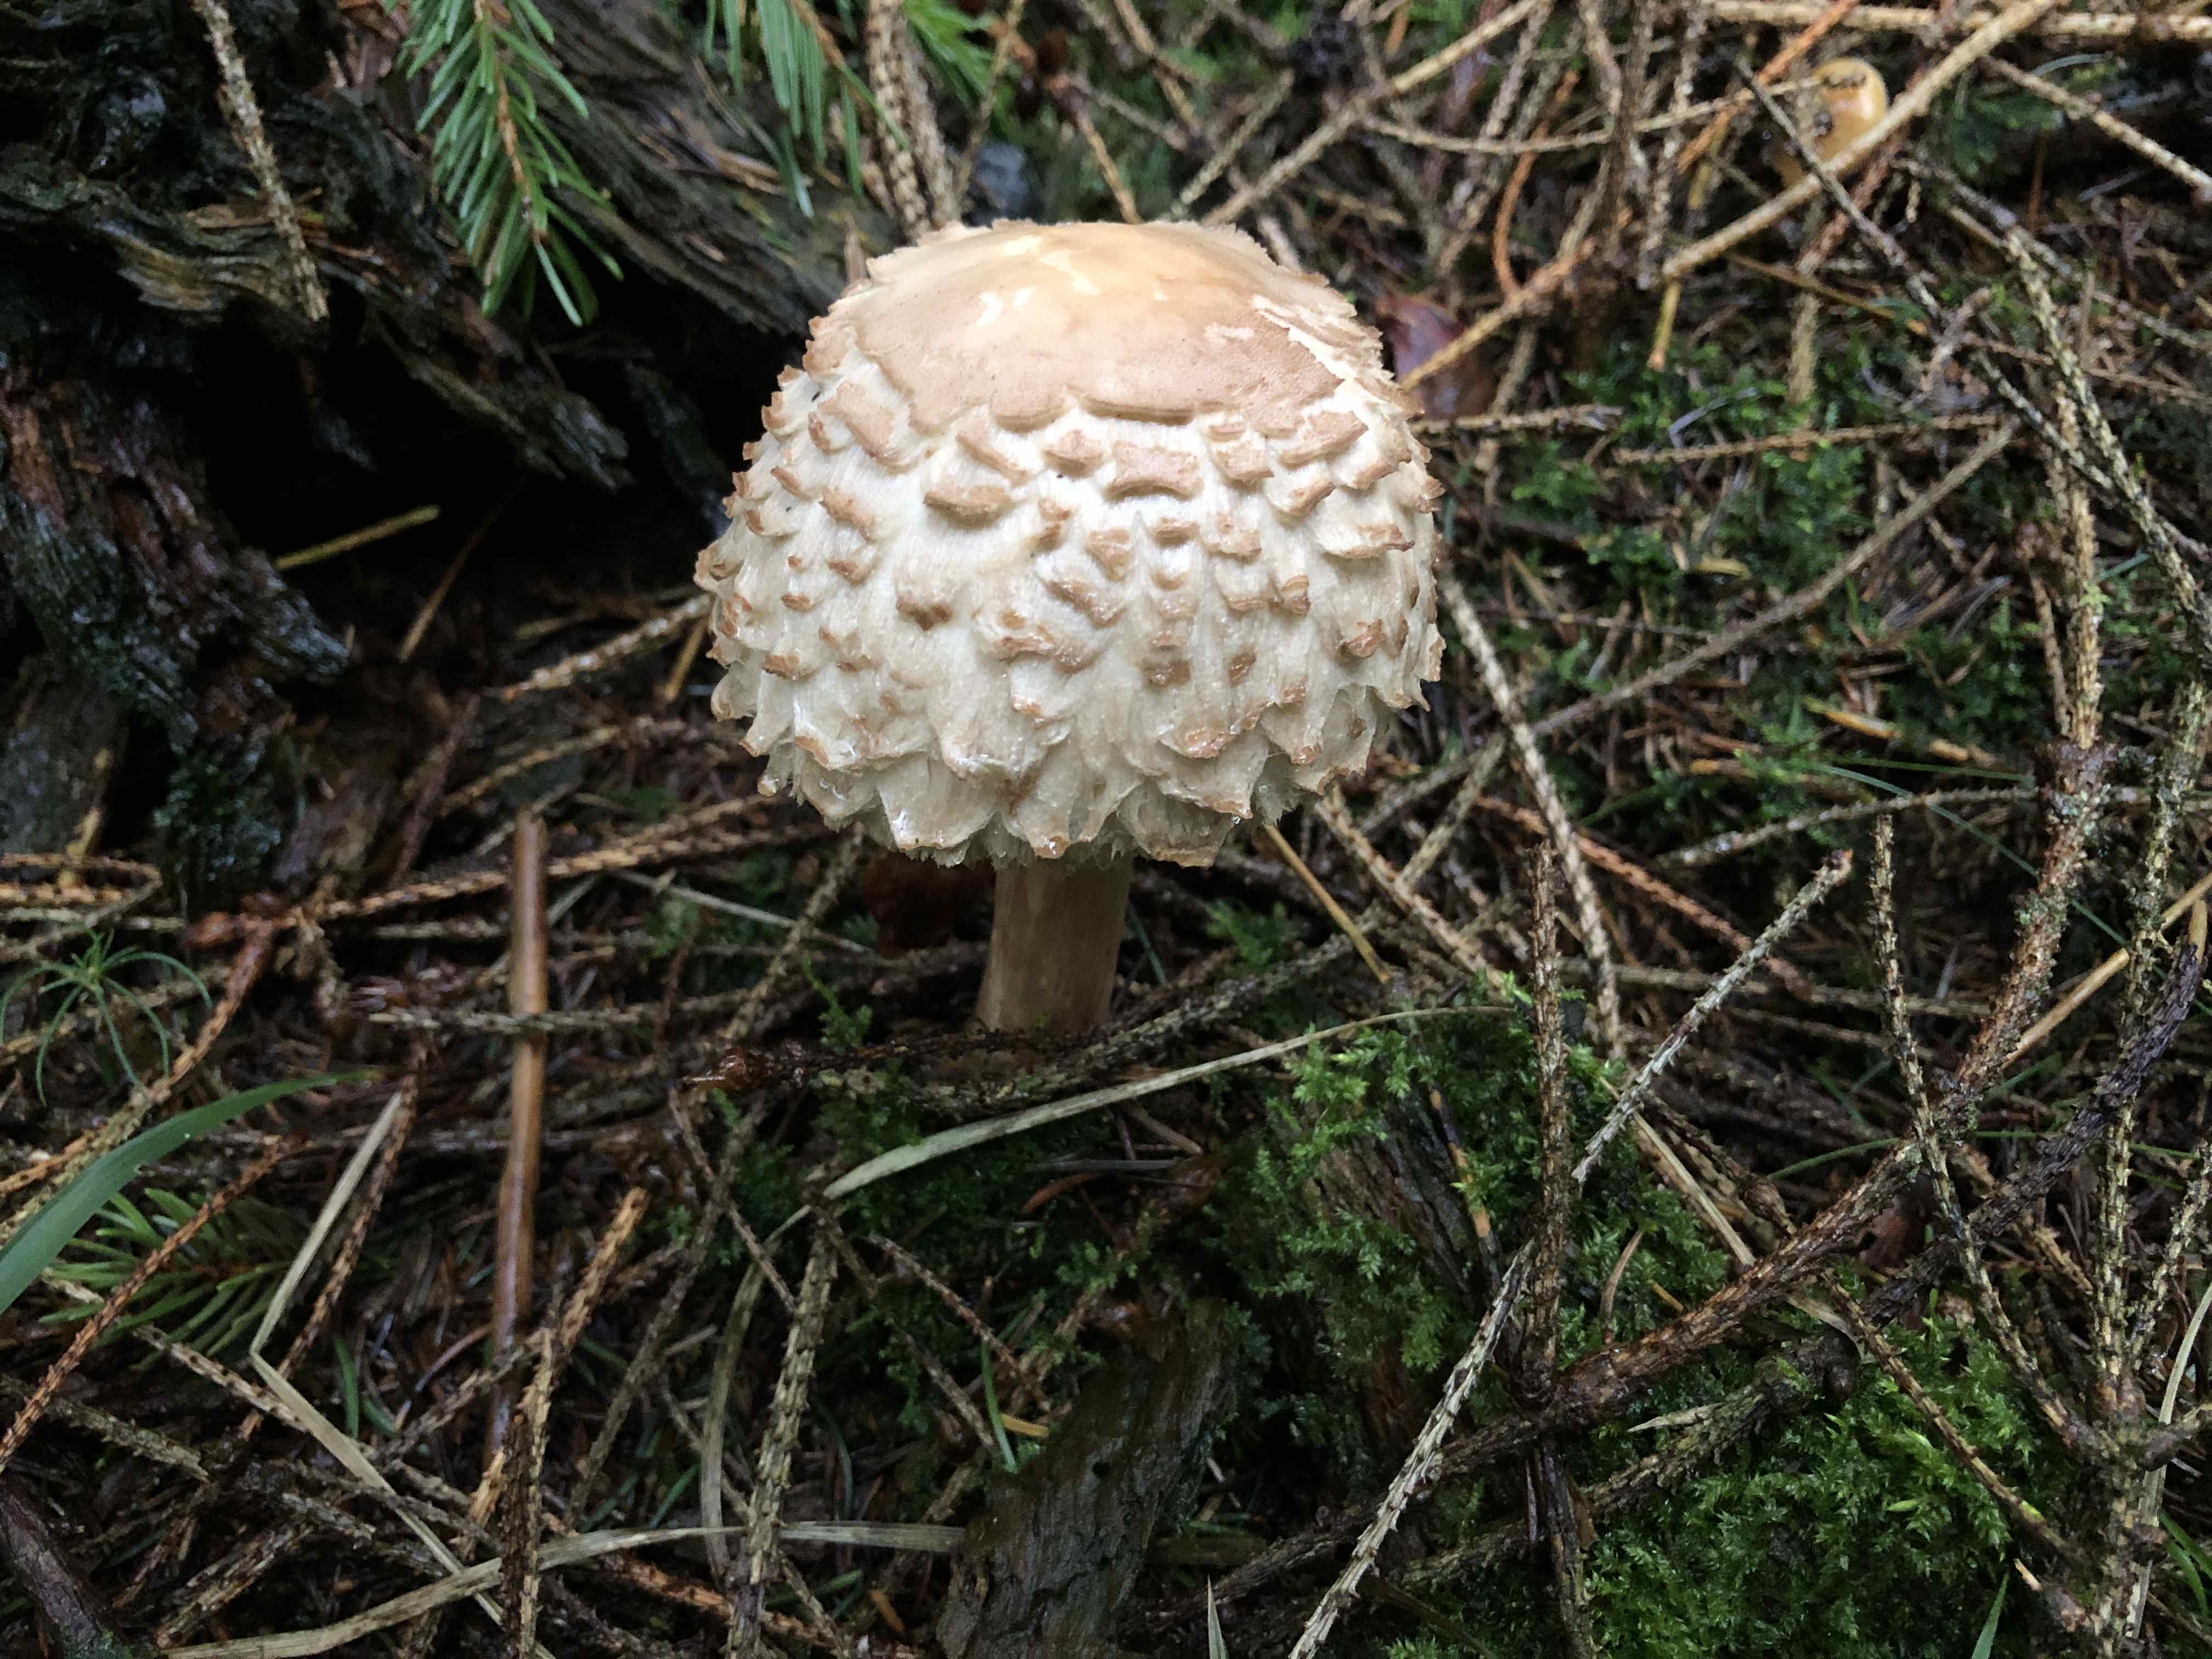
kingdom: Fungi
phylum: Basidiomycota
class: Agaricomycetes
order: Agaricales
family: Agaricaceae
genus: Chlorophyllum
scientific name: Chlorophyllum olivieri
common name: almindelig rabarberhat
